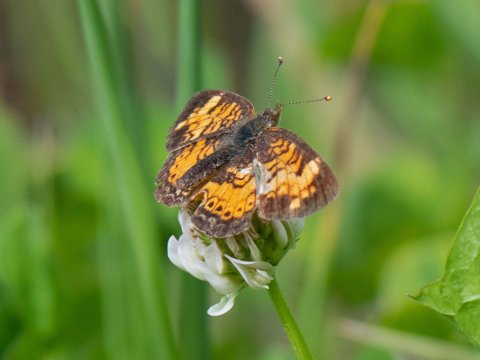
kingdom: Animalia
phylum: Arthropoda
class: Insecta
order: Lepidoptera
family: Nymphalidae
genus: Phyciodes
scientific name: Phyciodes
